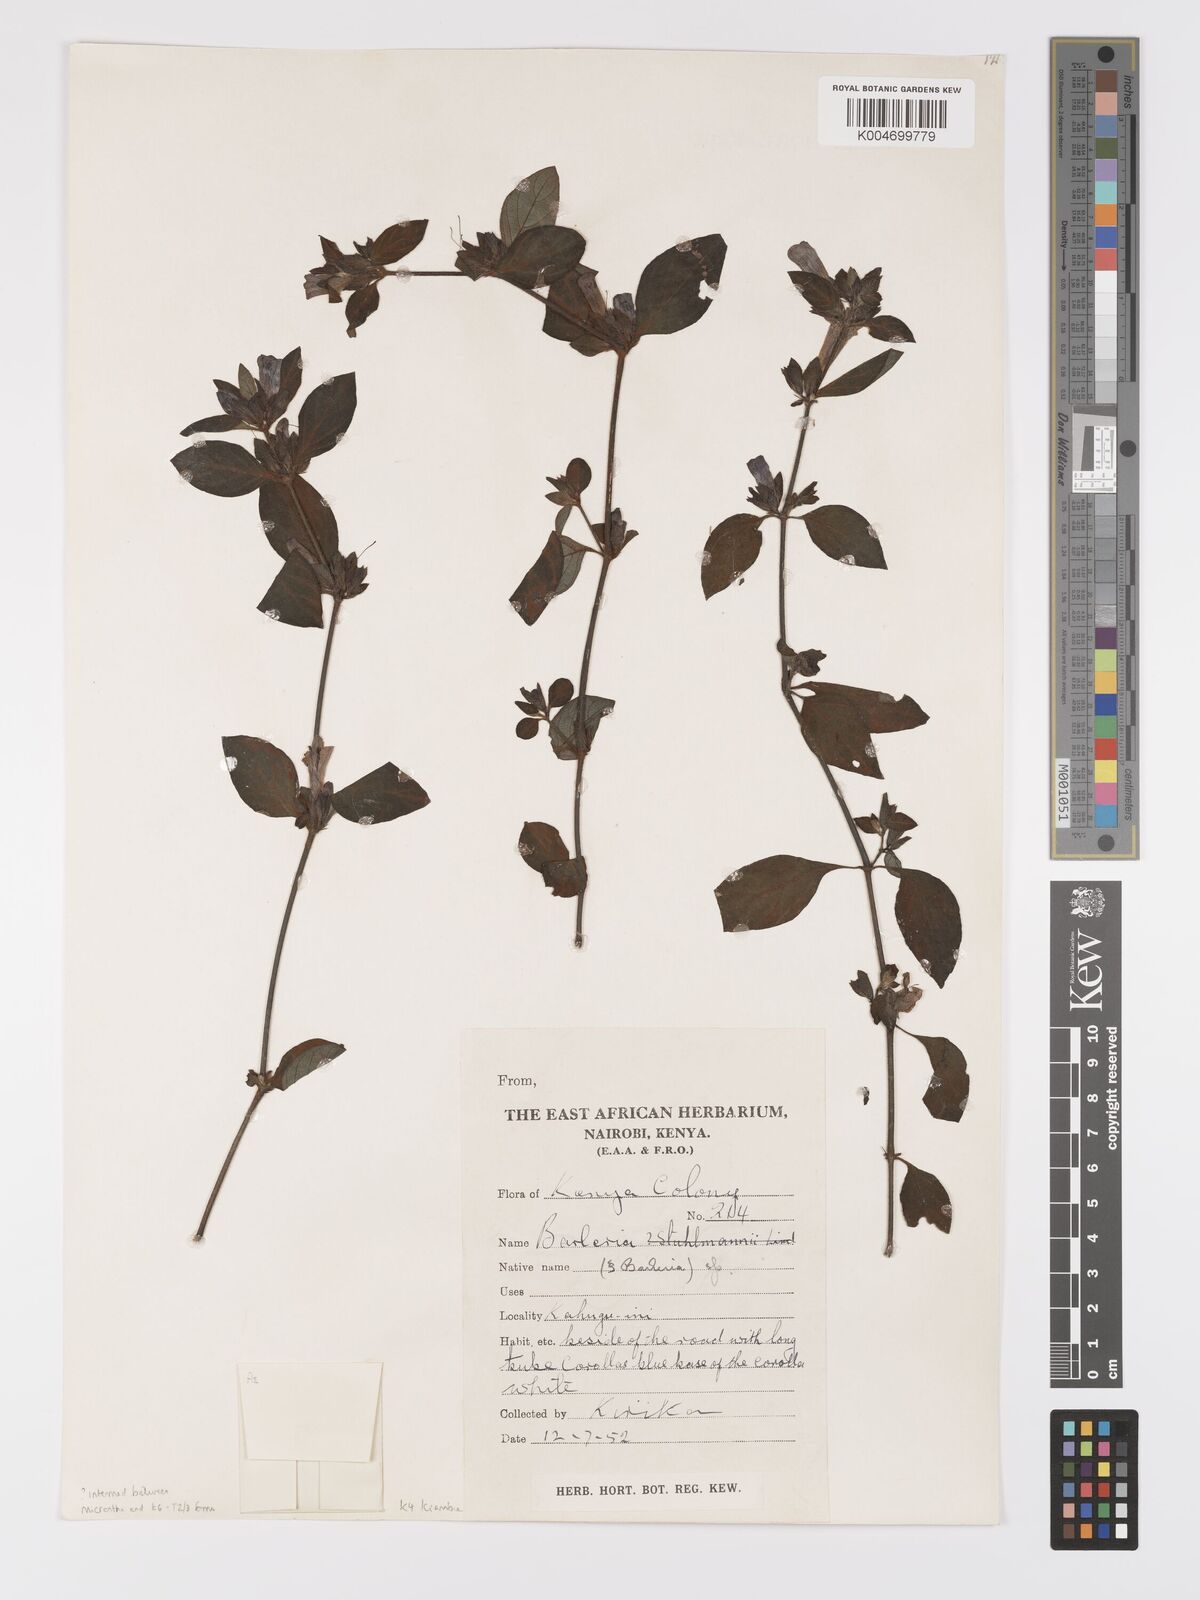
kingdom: Plantae
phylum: Tracheophyta
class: Magnoliopsida
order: Lamiales
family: Acanthaceae
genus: Barleria
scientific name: Barleria ventricosa
